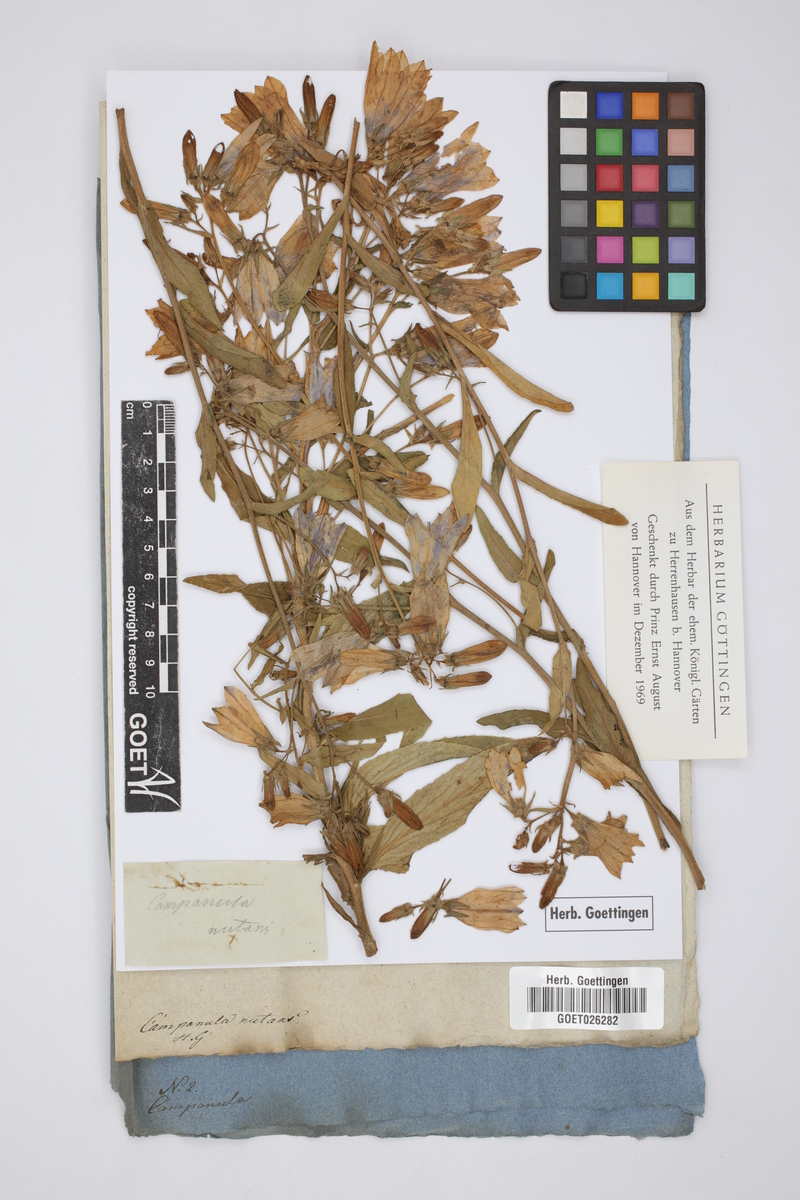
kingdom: Plantae
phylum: Tracheophyta
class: Magnoliopsida
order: Asterales
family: Campanulaceae
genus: Campanula
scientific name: Campanula rapunculoides
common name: Creeping bellflower
